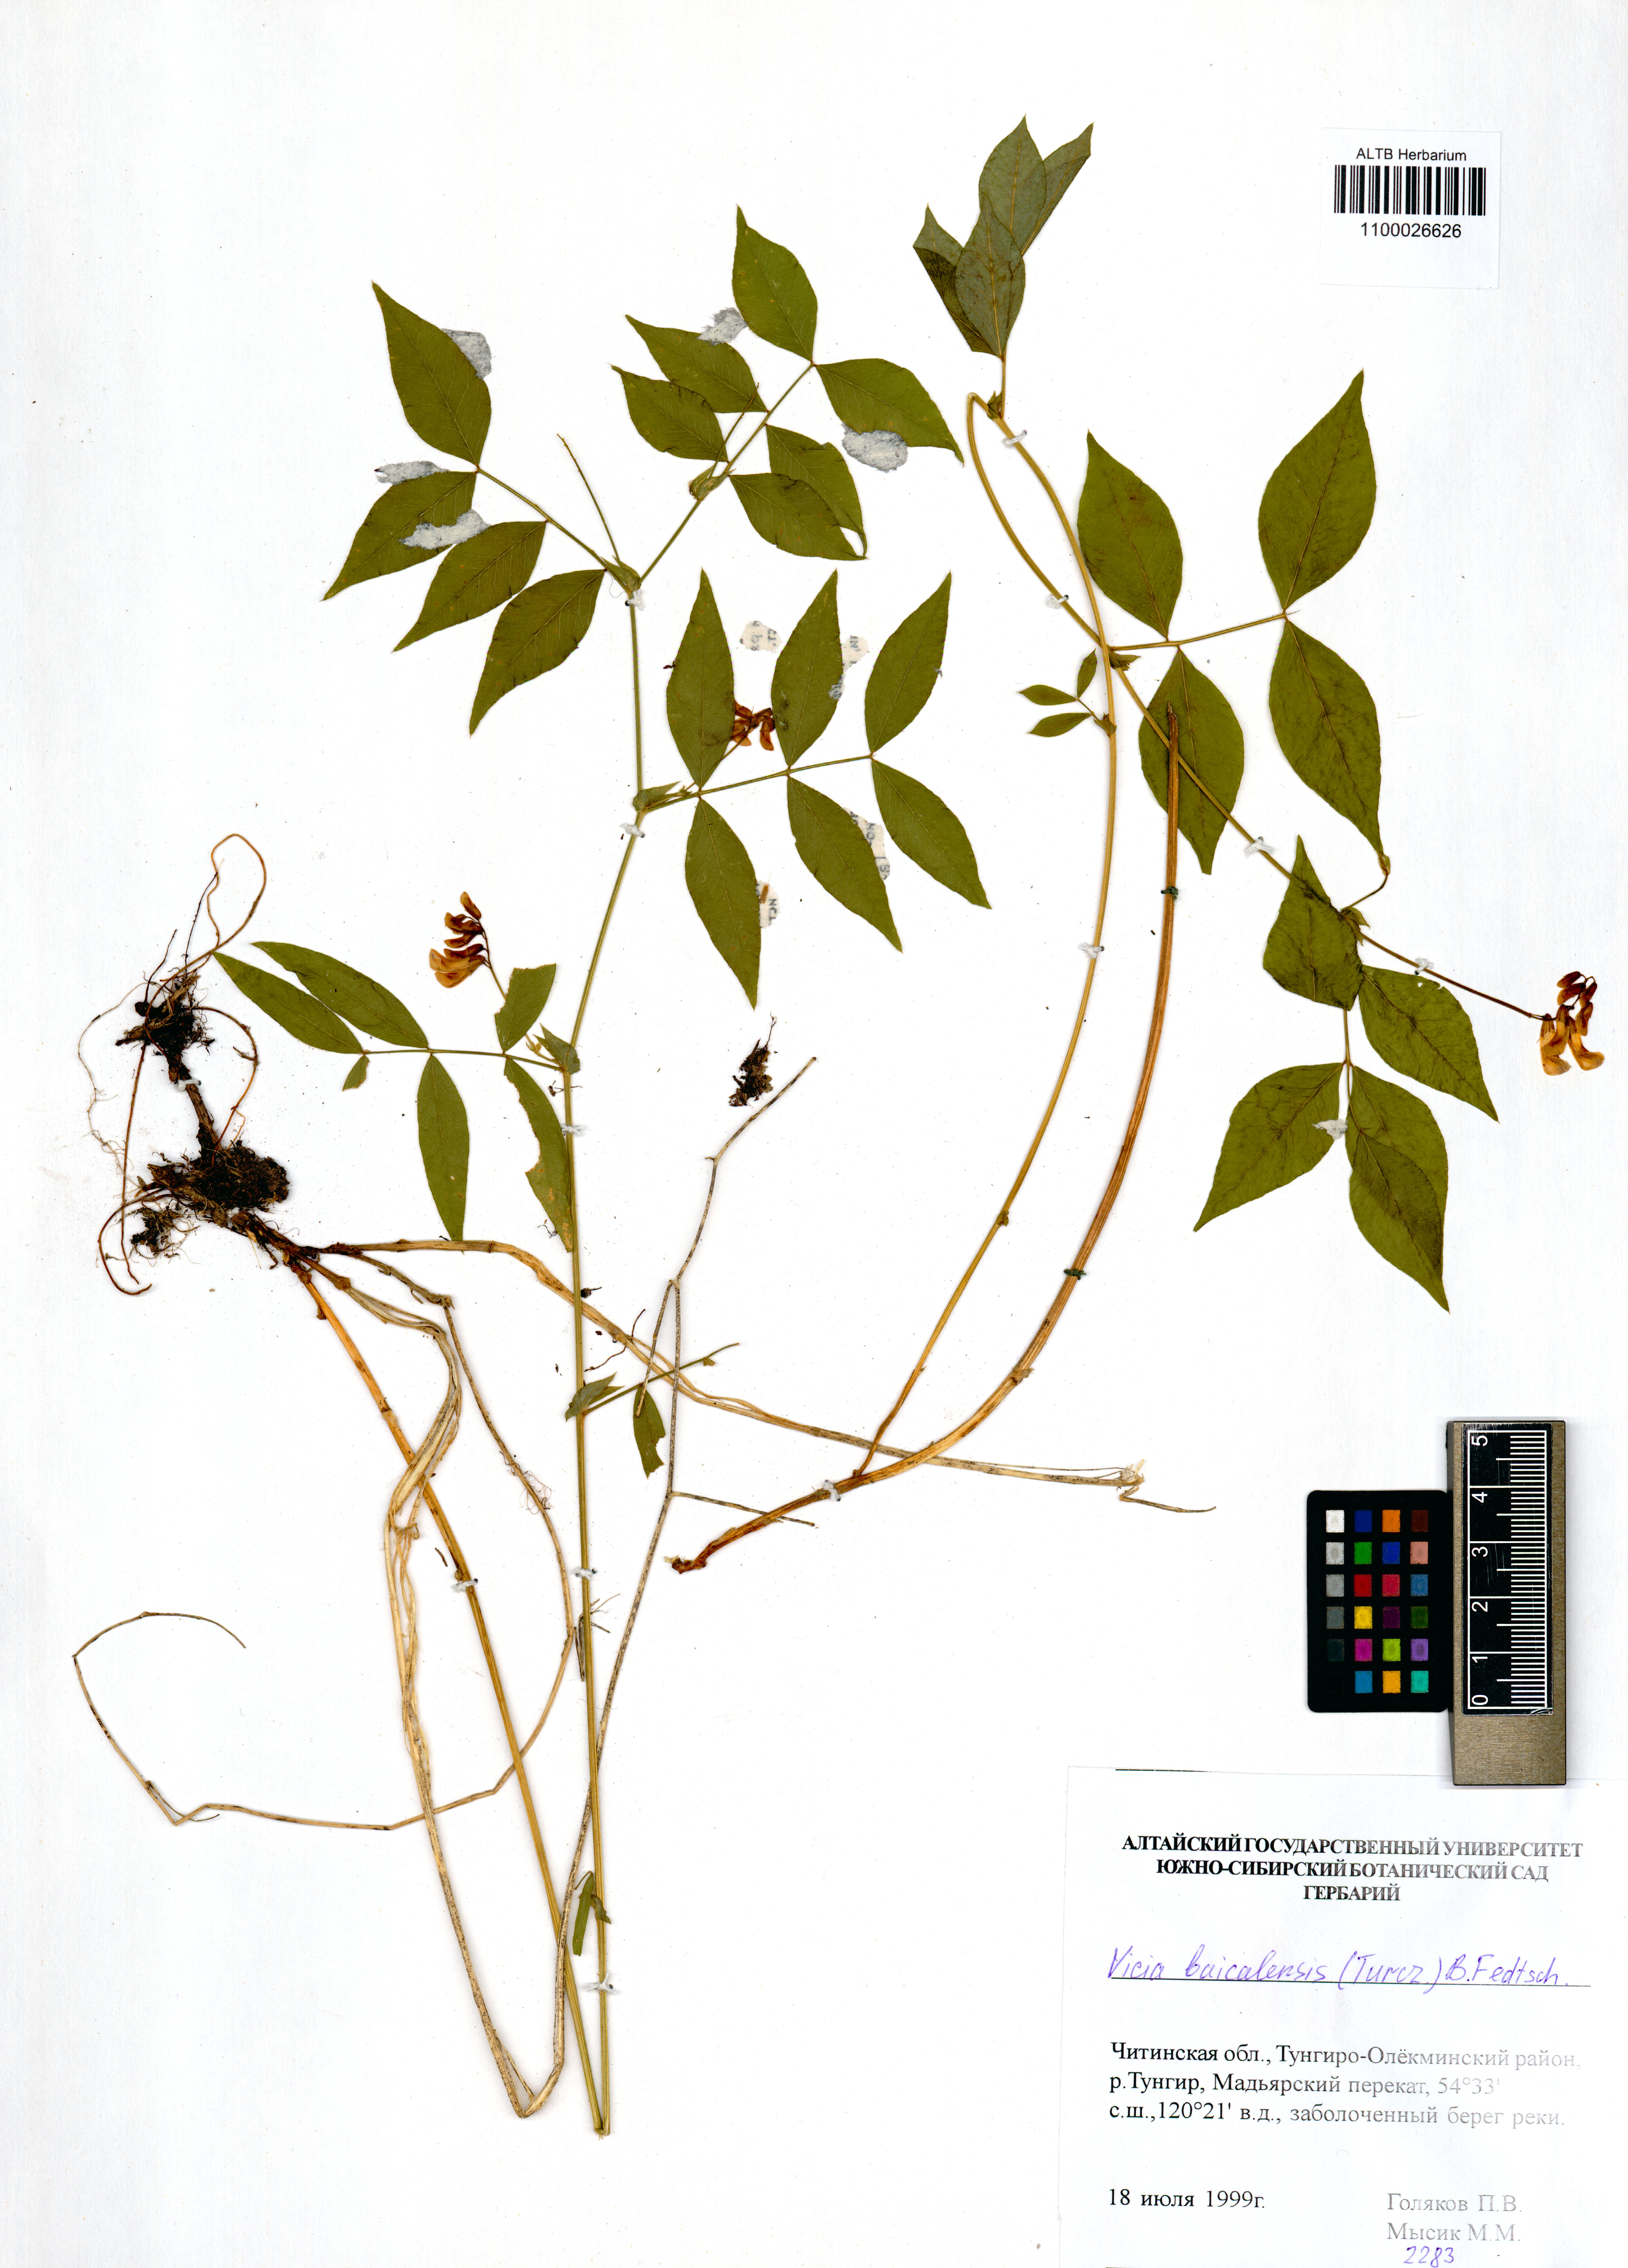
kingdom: Plantae
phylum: Tracheophyta
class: Magnoliopsida
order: Fabales
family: Fabaceae
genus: Vicia
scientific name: Vicia ramuliflora
